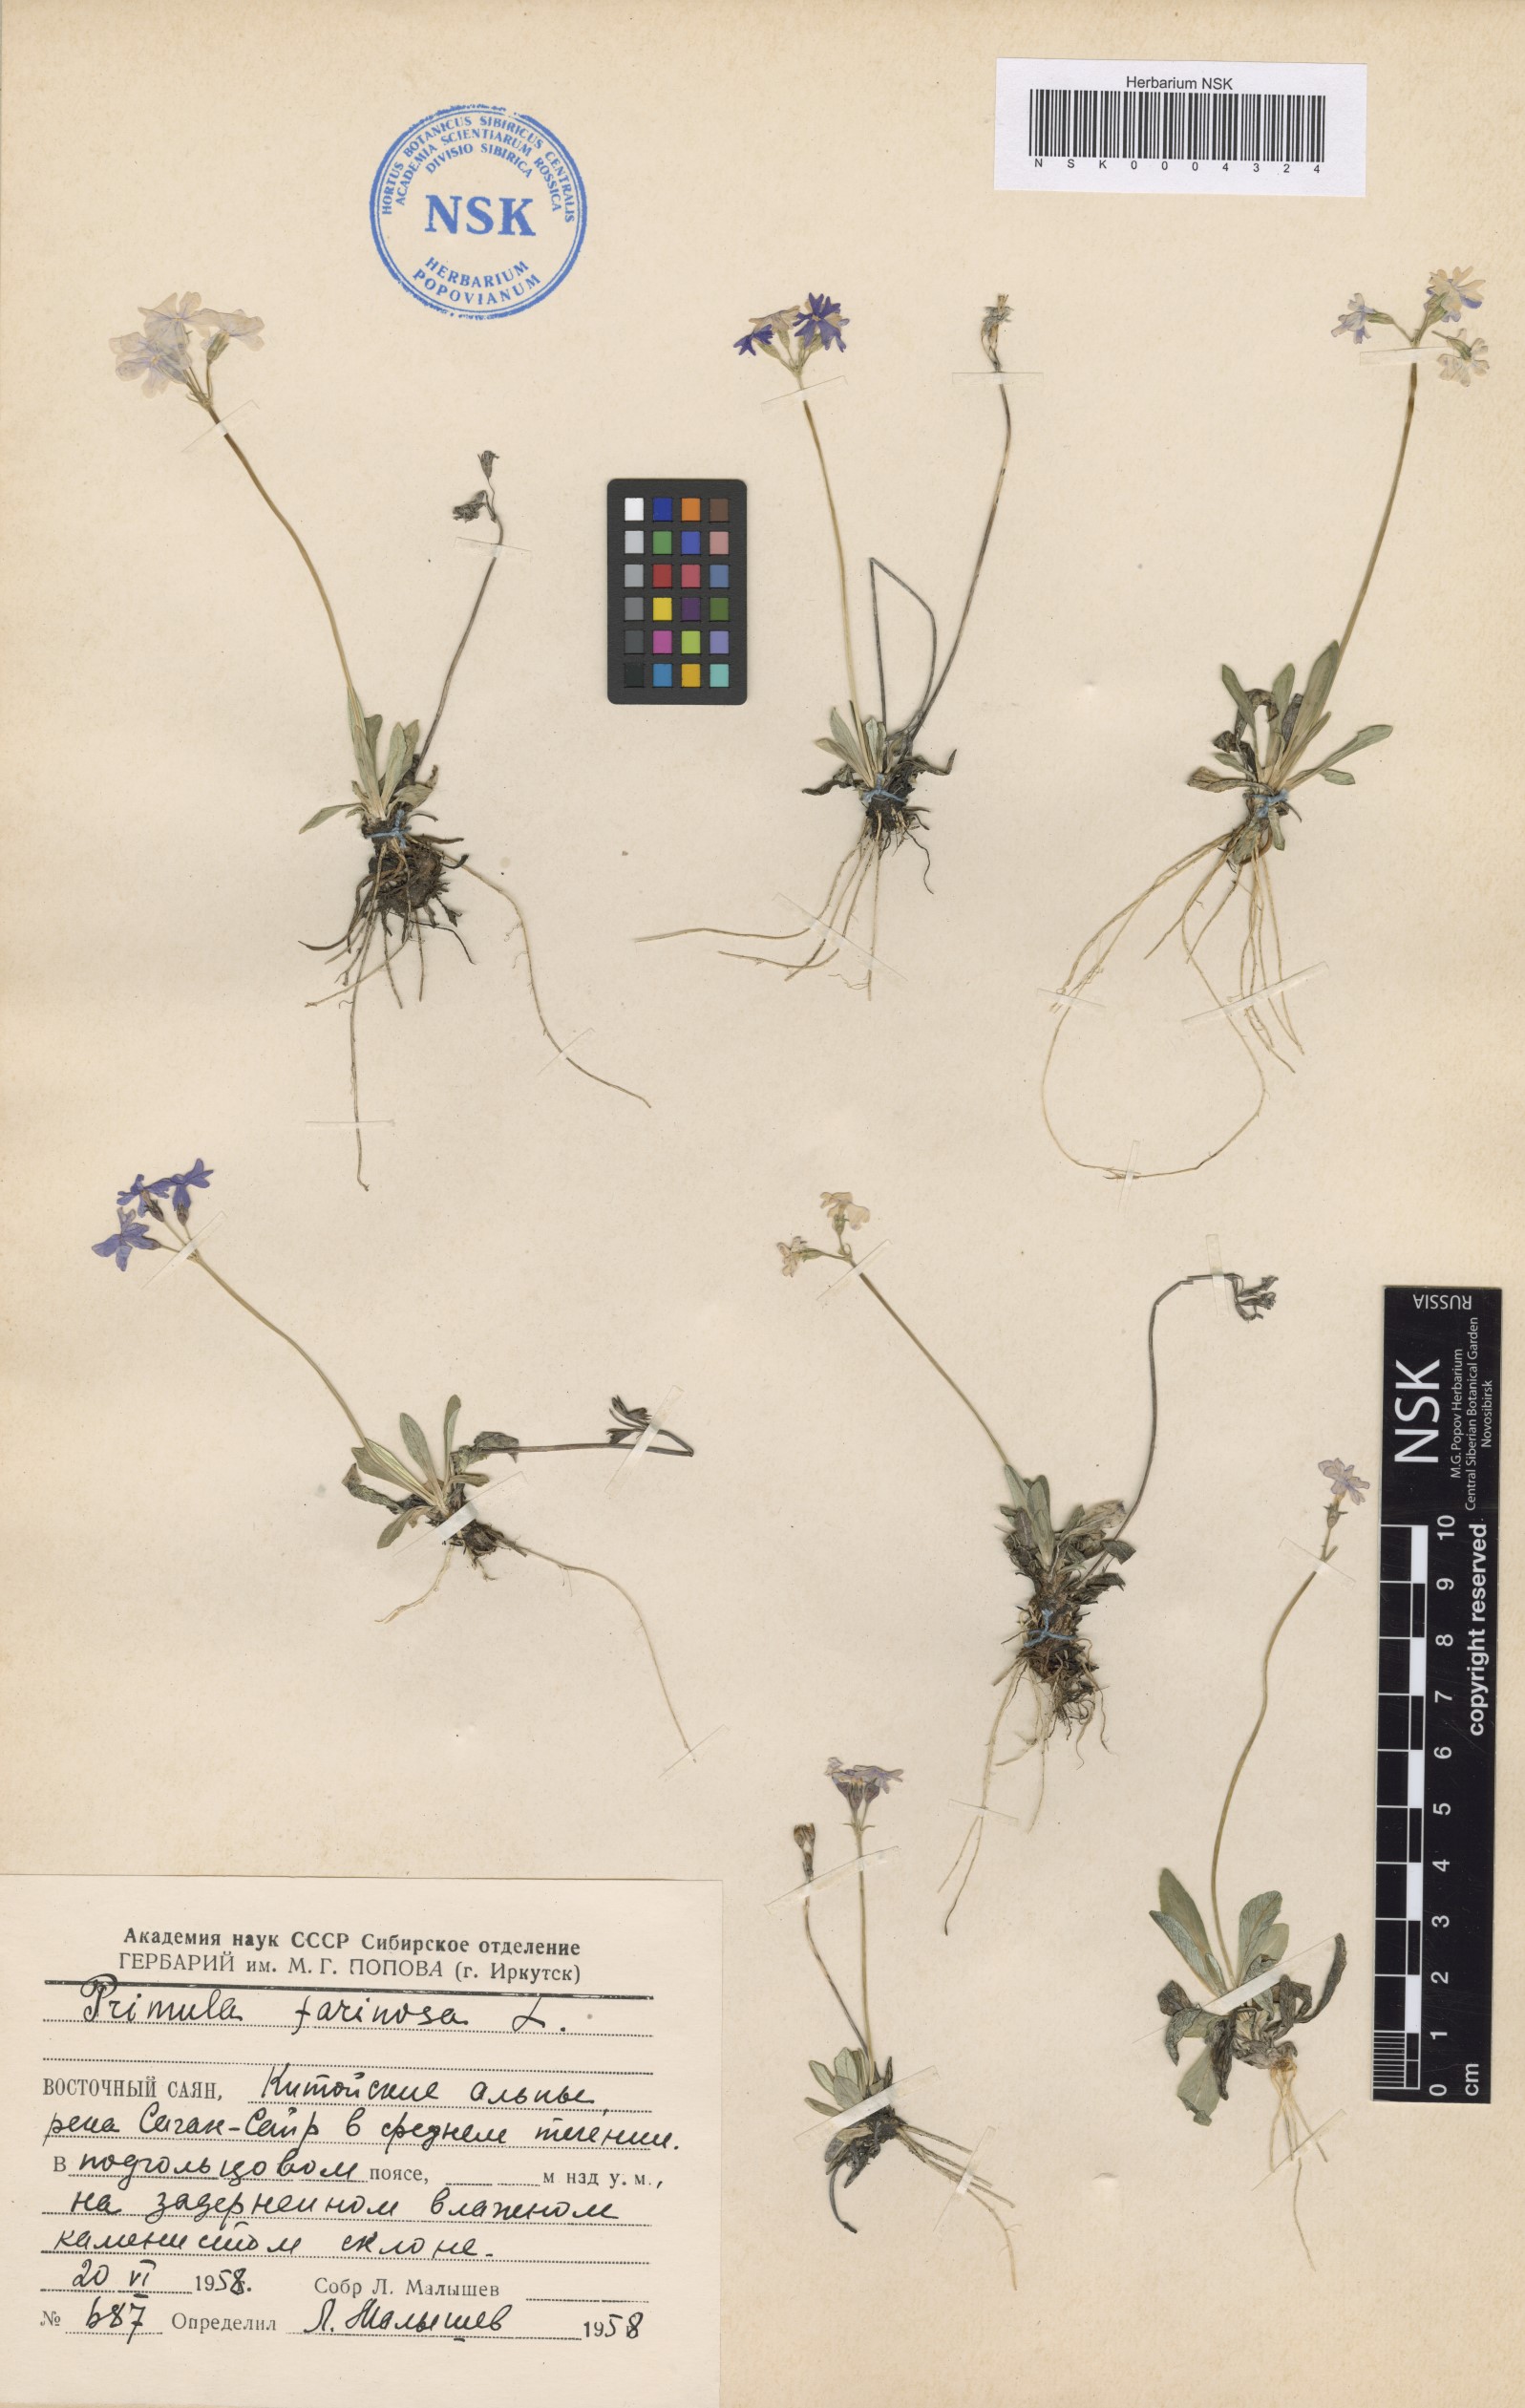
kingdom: Plantae
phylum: Tracheophyta
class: Magnoliopsida
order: Ericales
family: Primulaceae
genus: Primula
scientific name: Primula farinosa
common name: Bird's-eye primrose
